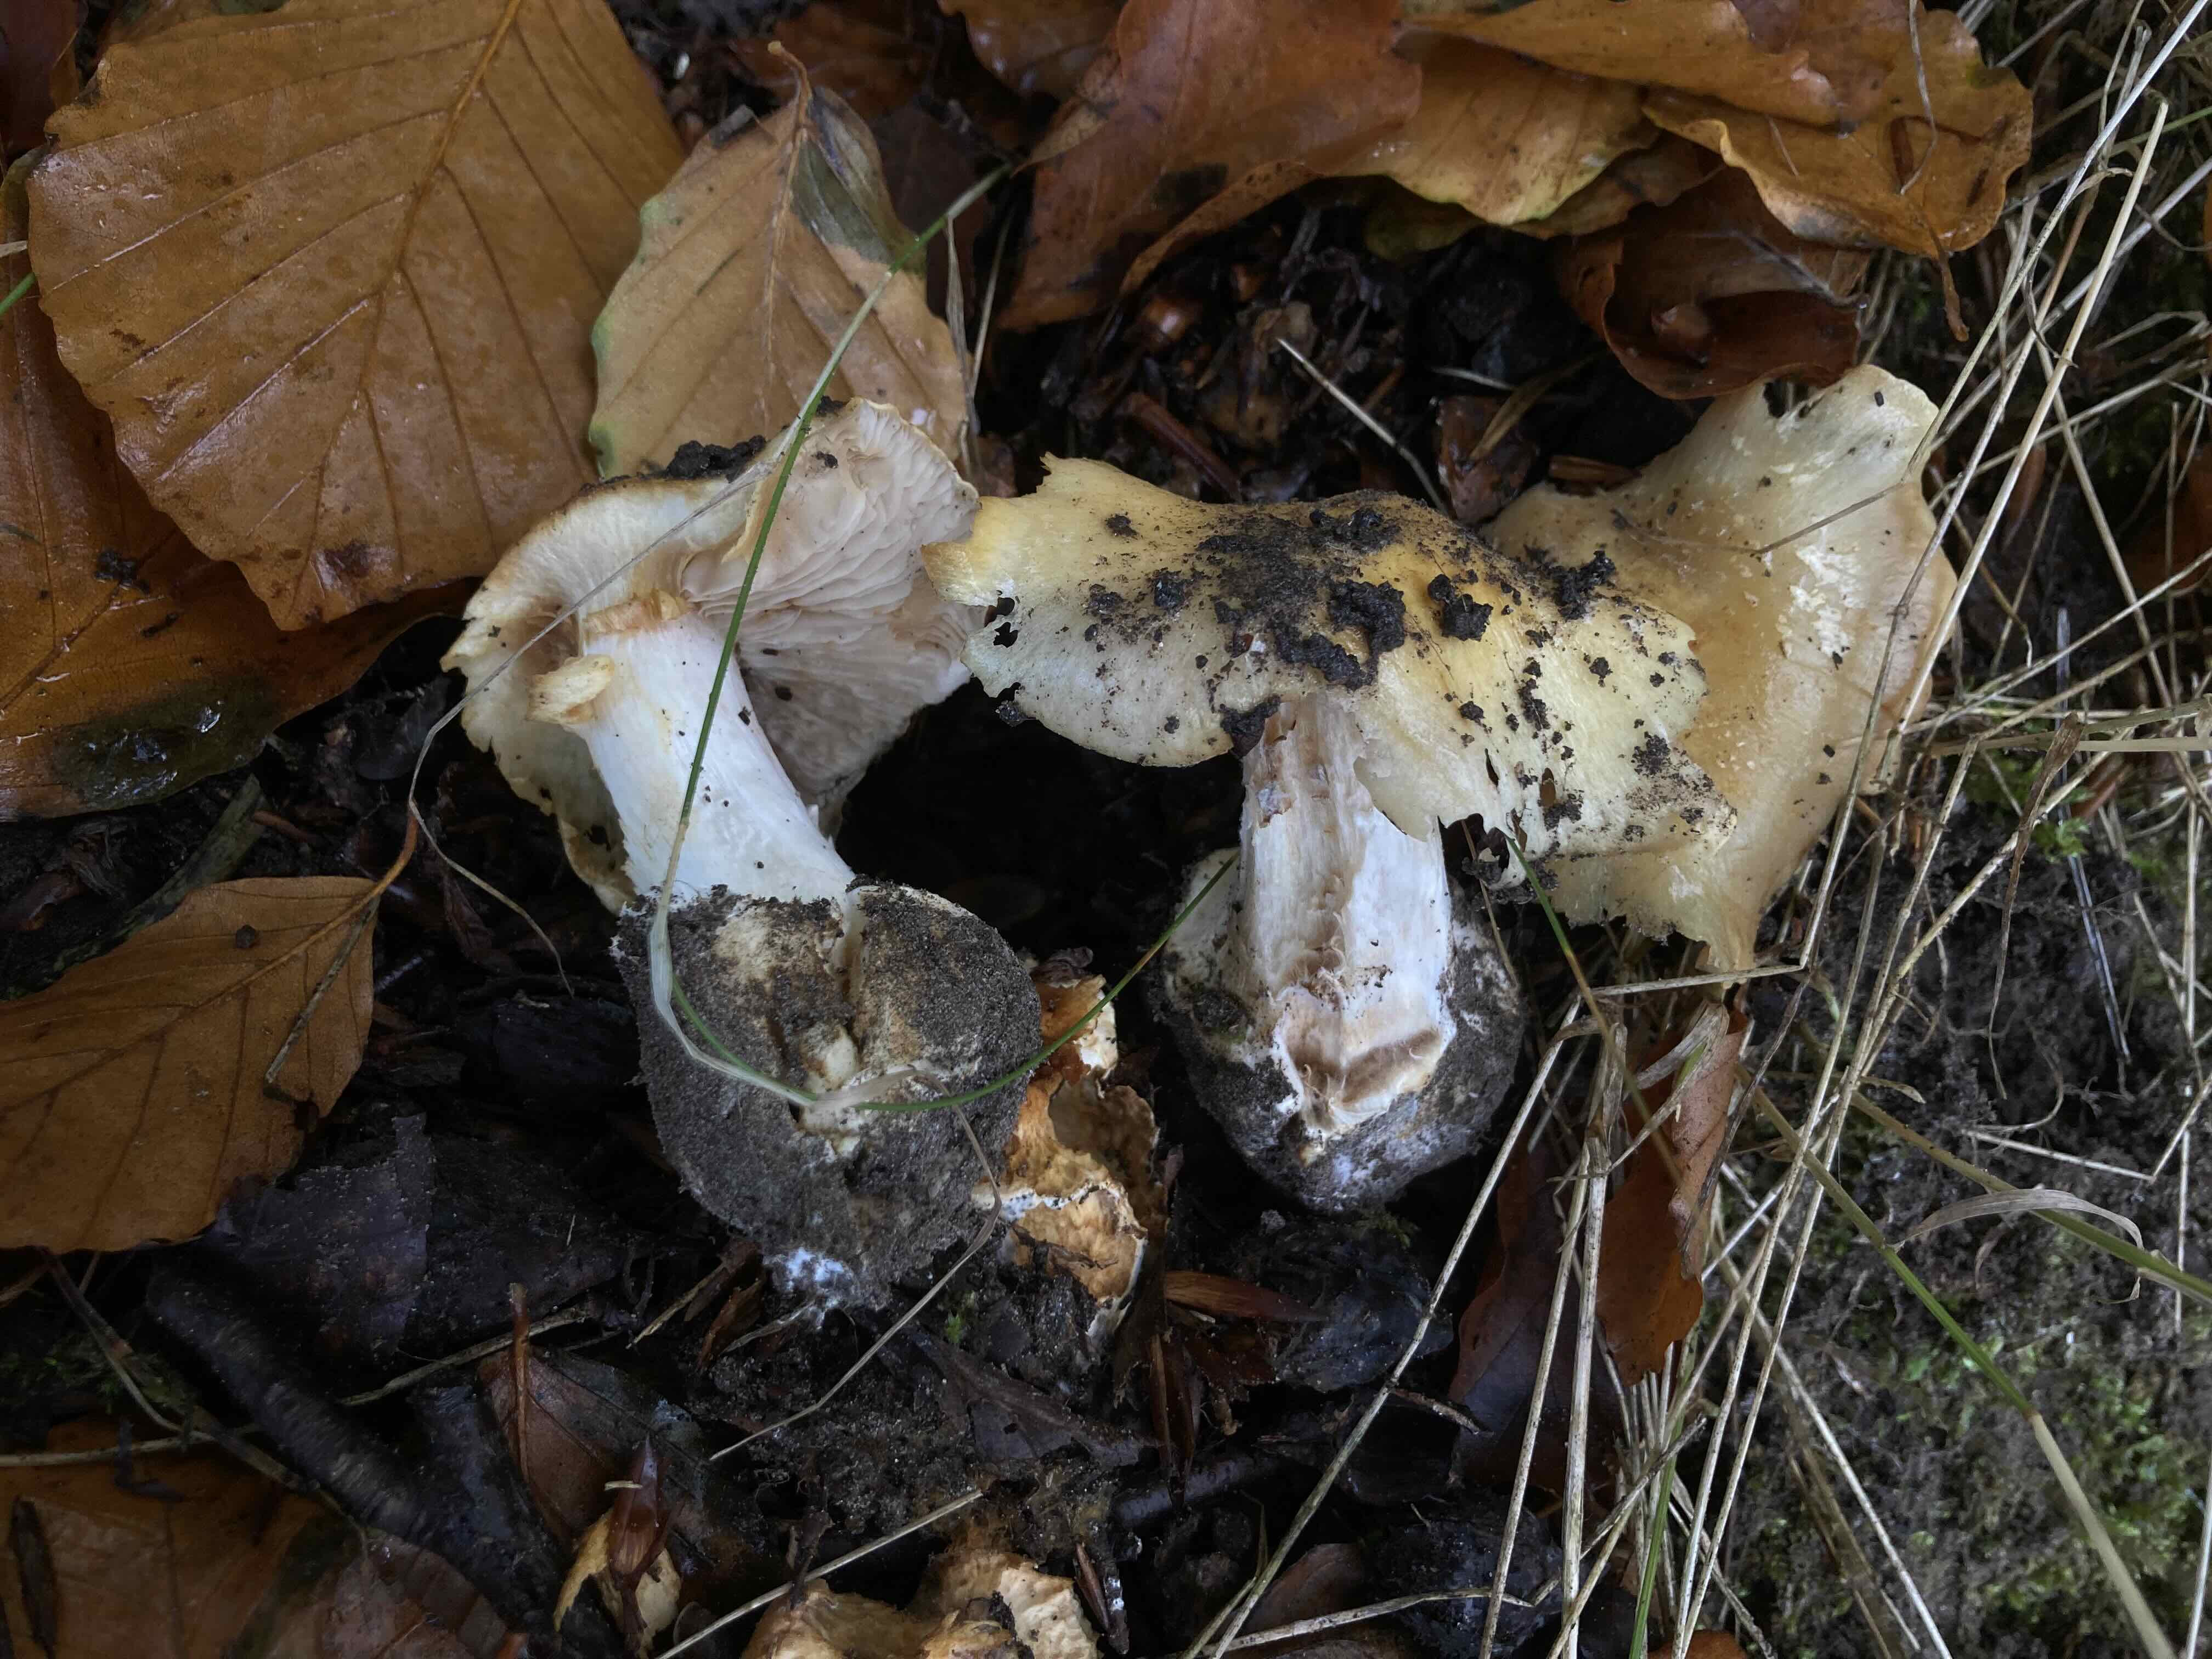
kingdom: Fungi
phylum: Basidiomycota
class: Agaricomycetes
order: Agaricales
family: Cortinariaceae
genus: Phlegmacium
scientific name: Phlegmacium xantho-ochraceum
